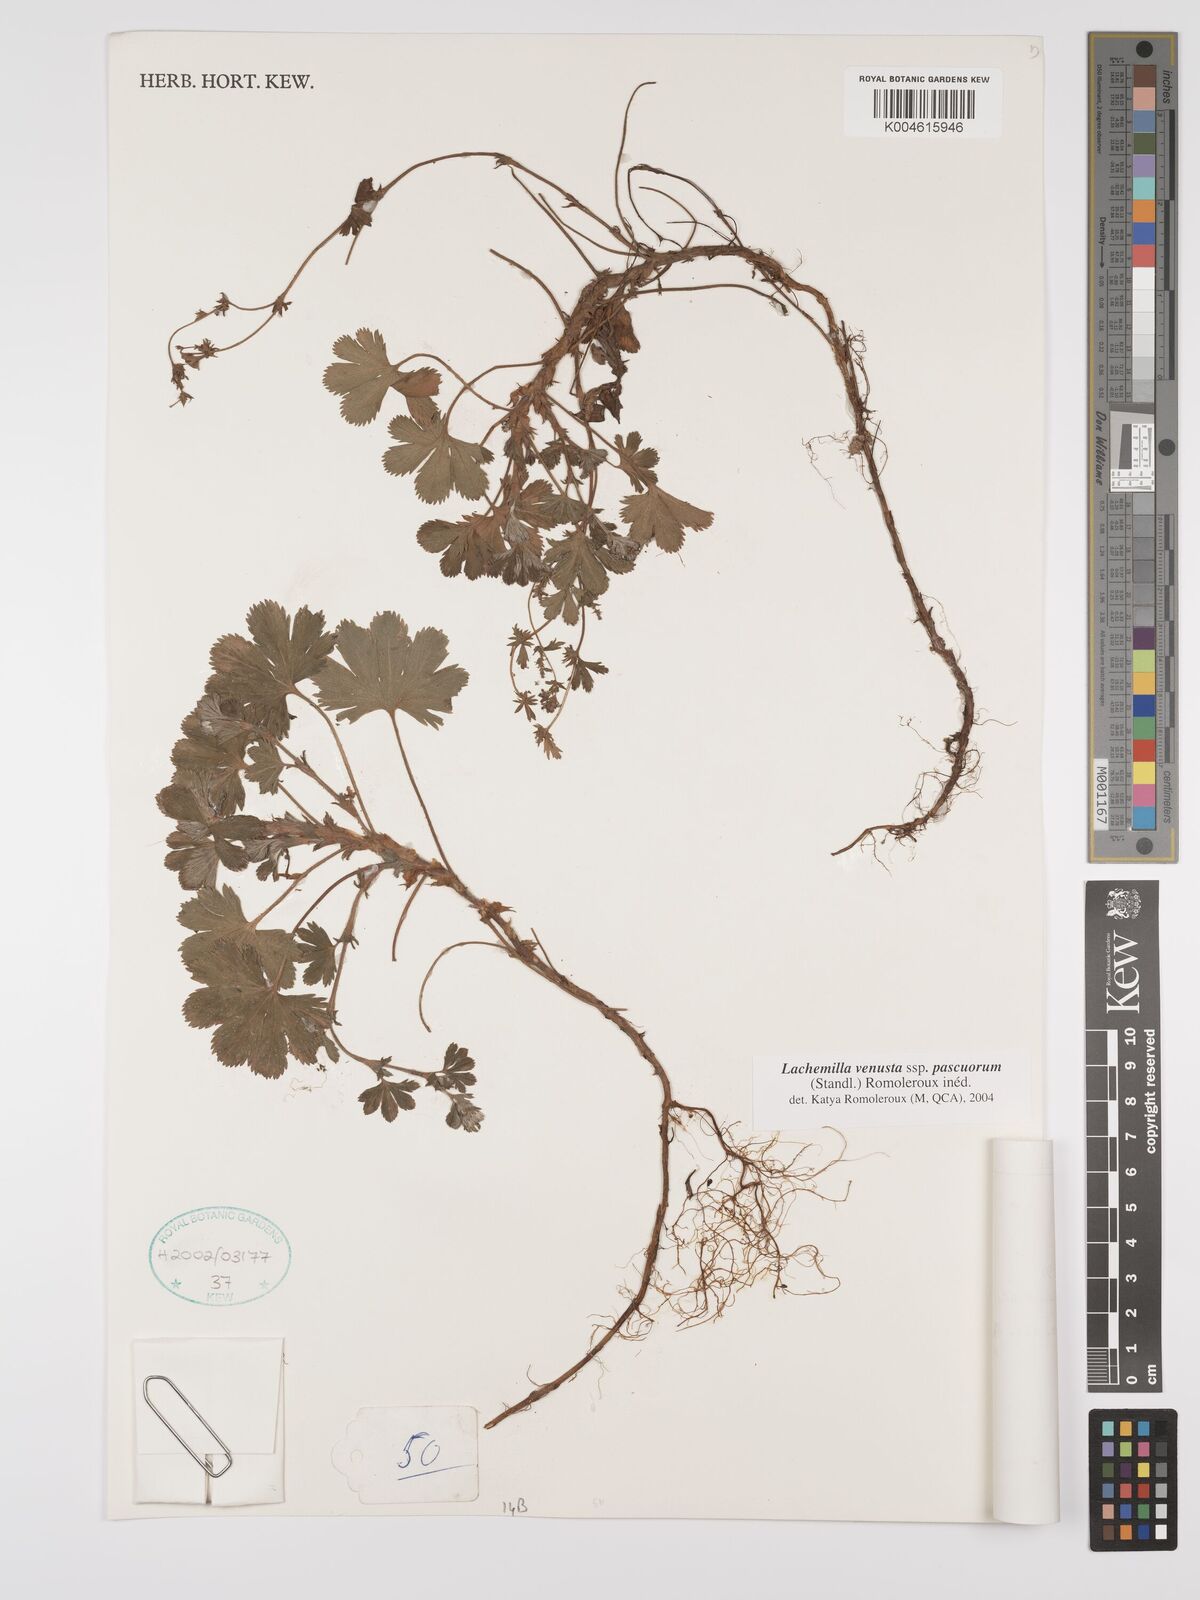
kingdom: Plantae
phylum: Tracheophyta
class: Magnoliopsida
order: Rosales
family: Rosaceae
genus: Lachemilla
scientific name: Lachemilla venusta
